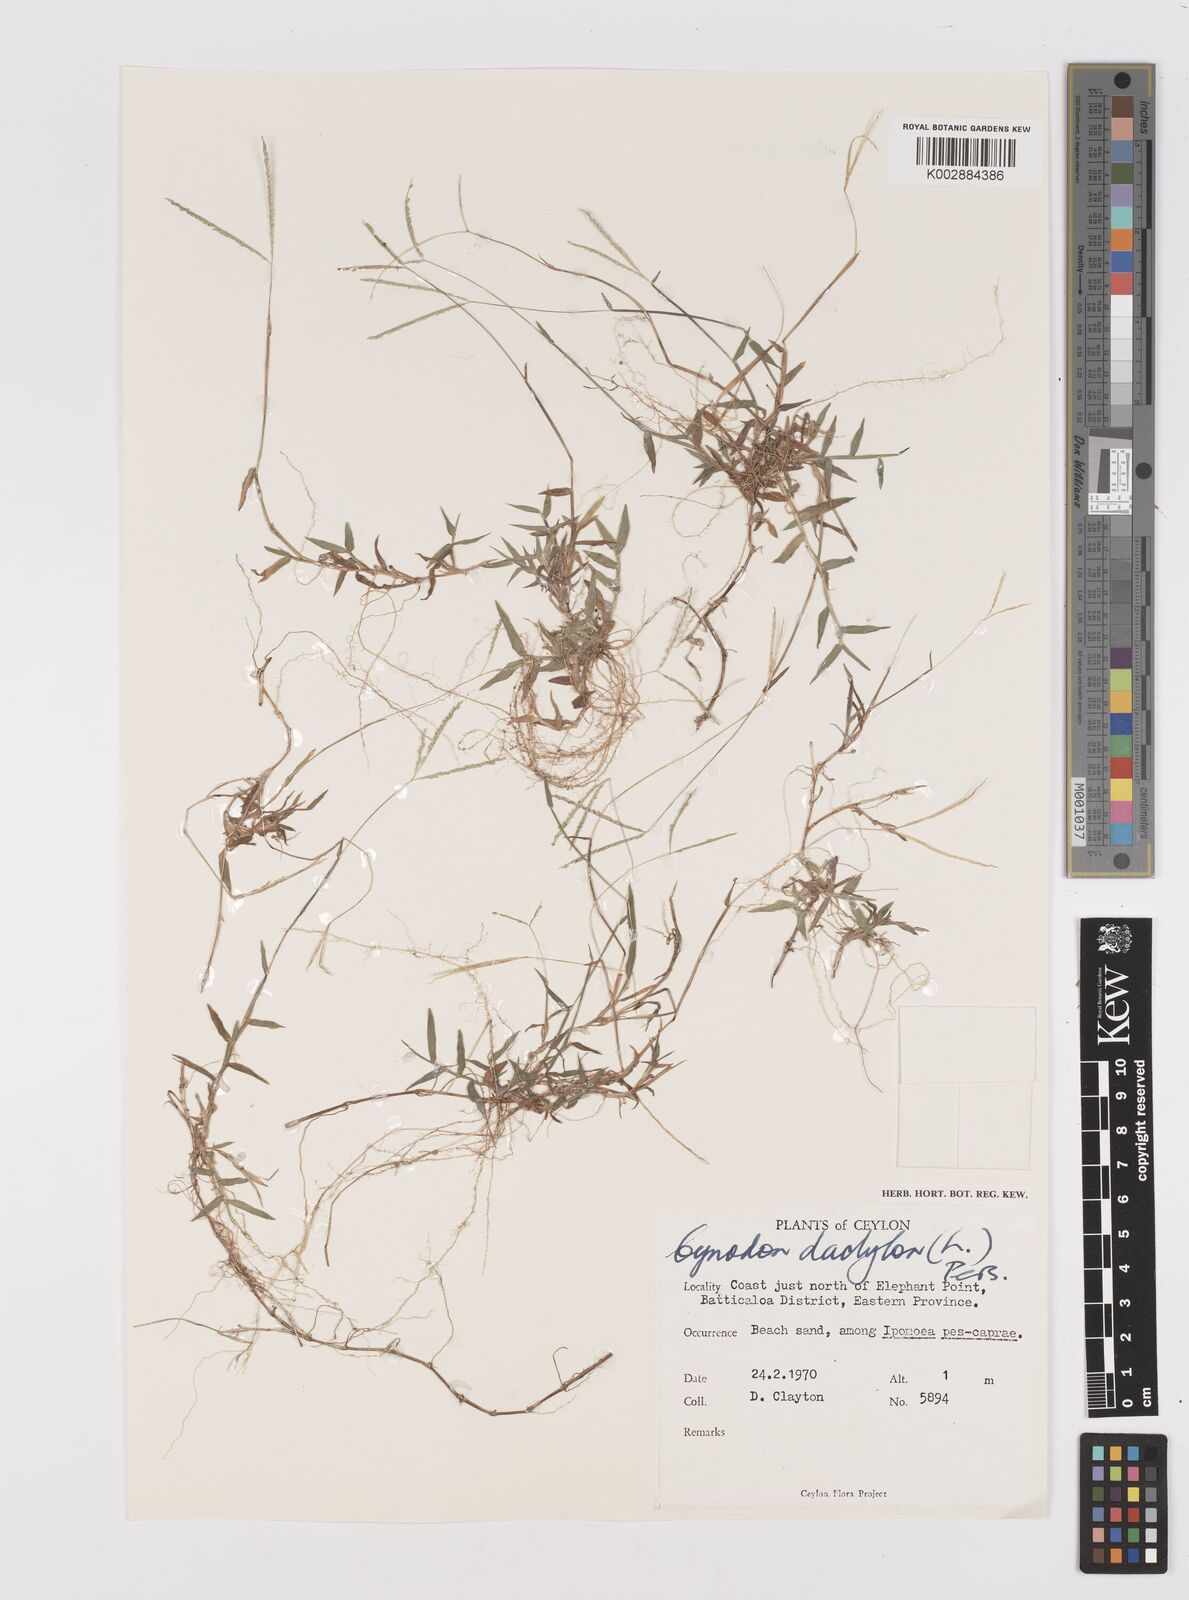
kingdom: Plantae
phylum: Tracheophyta
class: Liliopsida
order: Poales
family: Poaceae
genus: Cynodon
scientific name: Cynodon dactylon
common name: Bermuda grass
